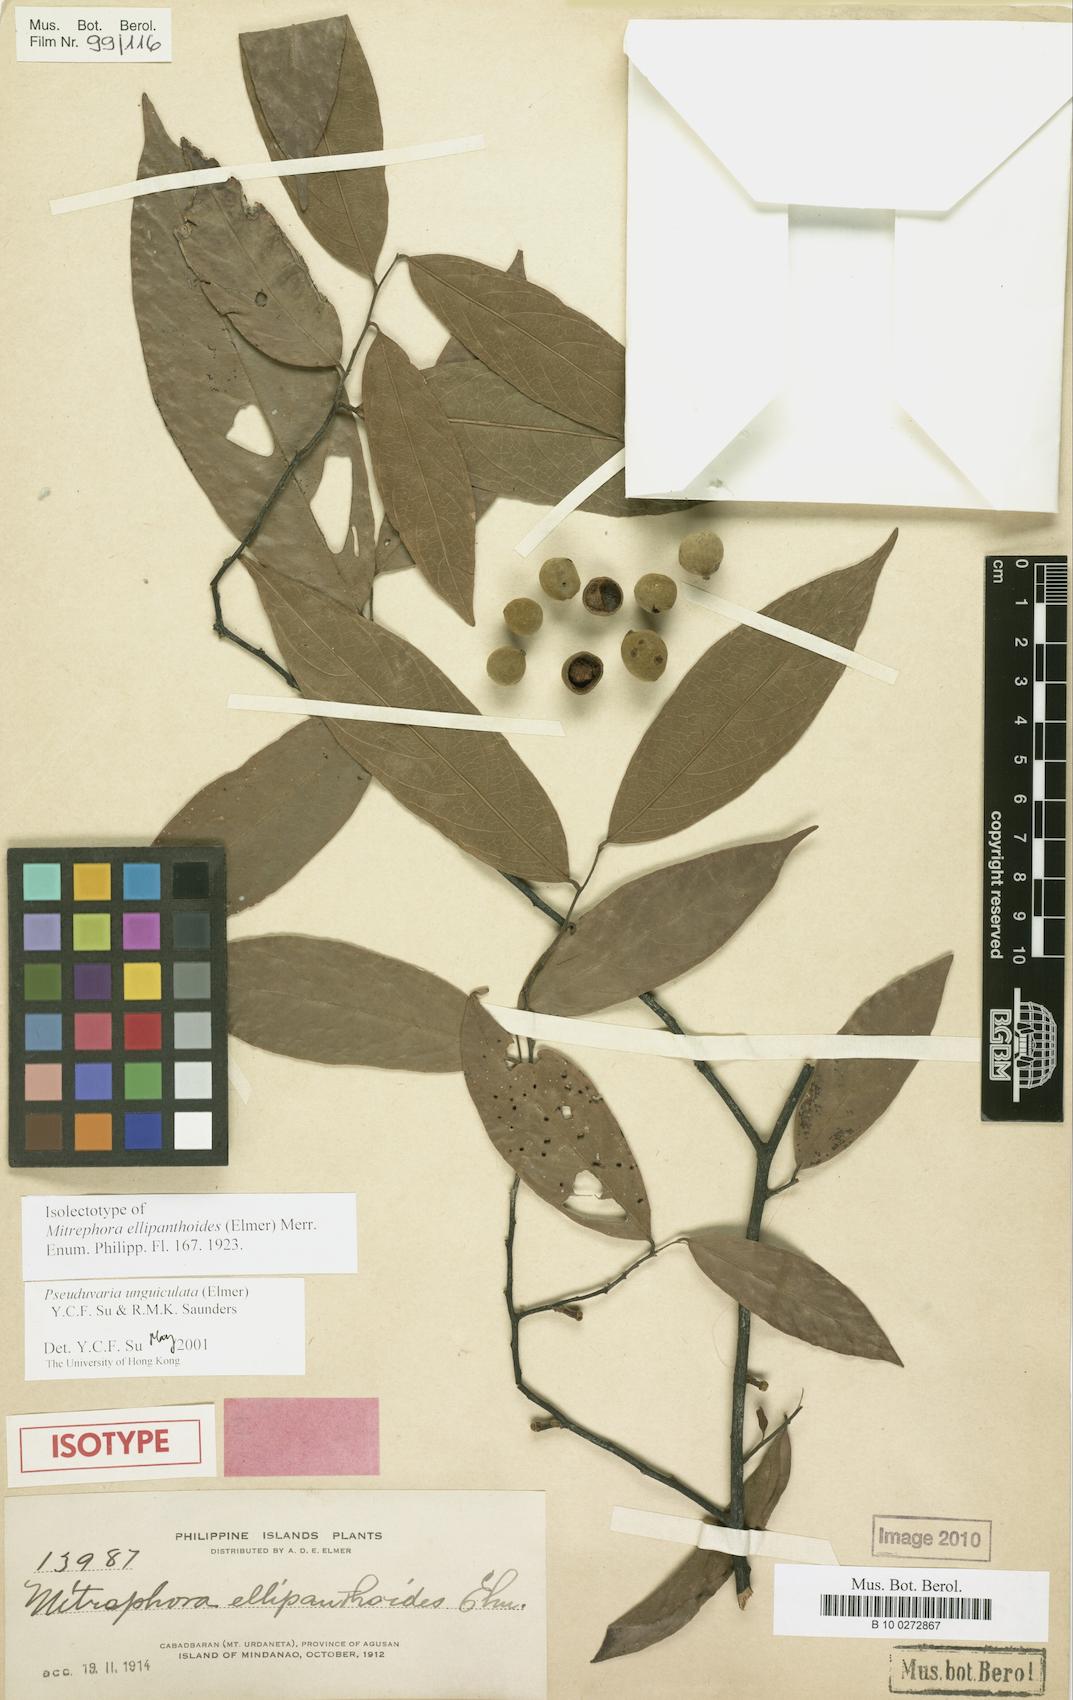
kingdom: Plantae
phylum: Tracheophyta
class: Magnoliopsida
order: Magnoliales
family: Annonaceae
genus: Pseuduvaria
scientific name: Pseuduvaria unguiculata
